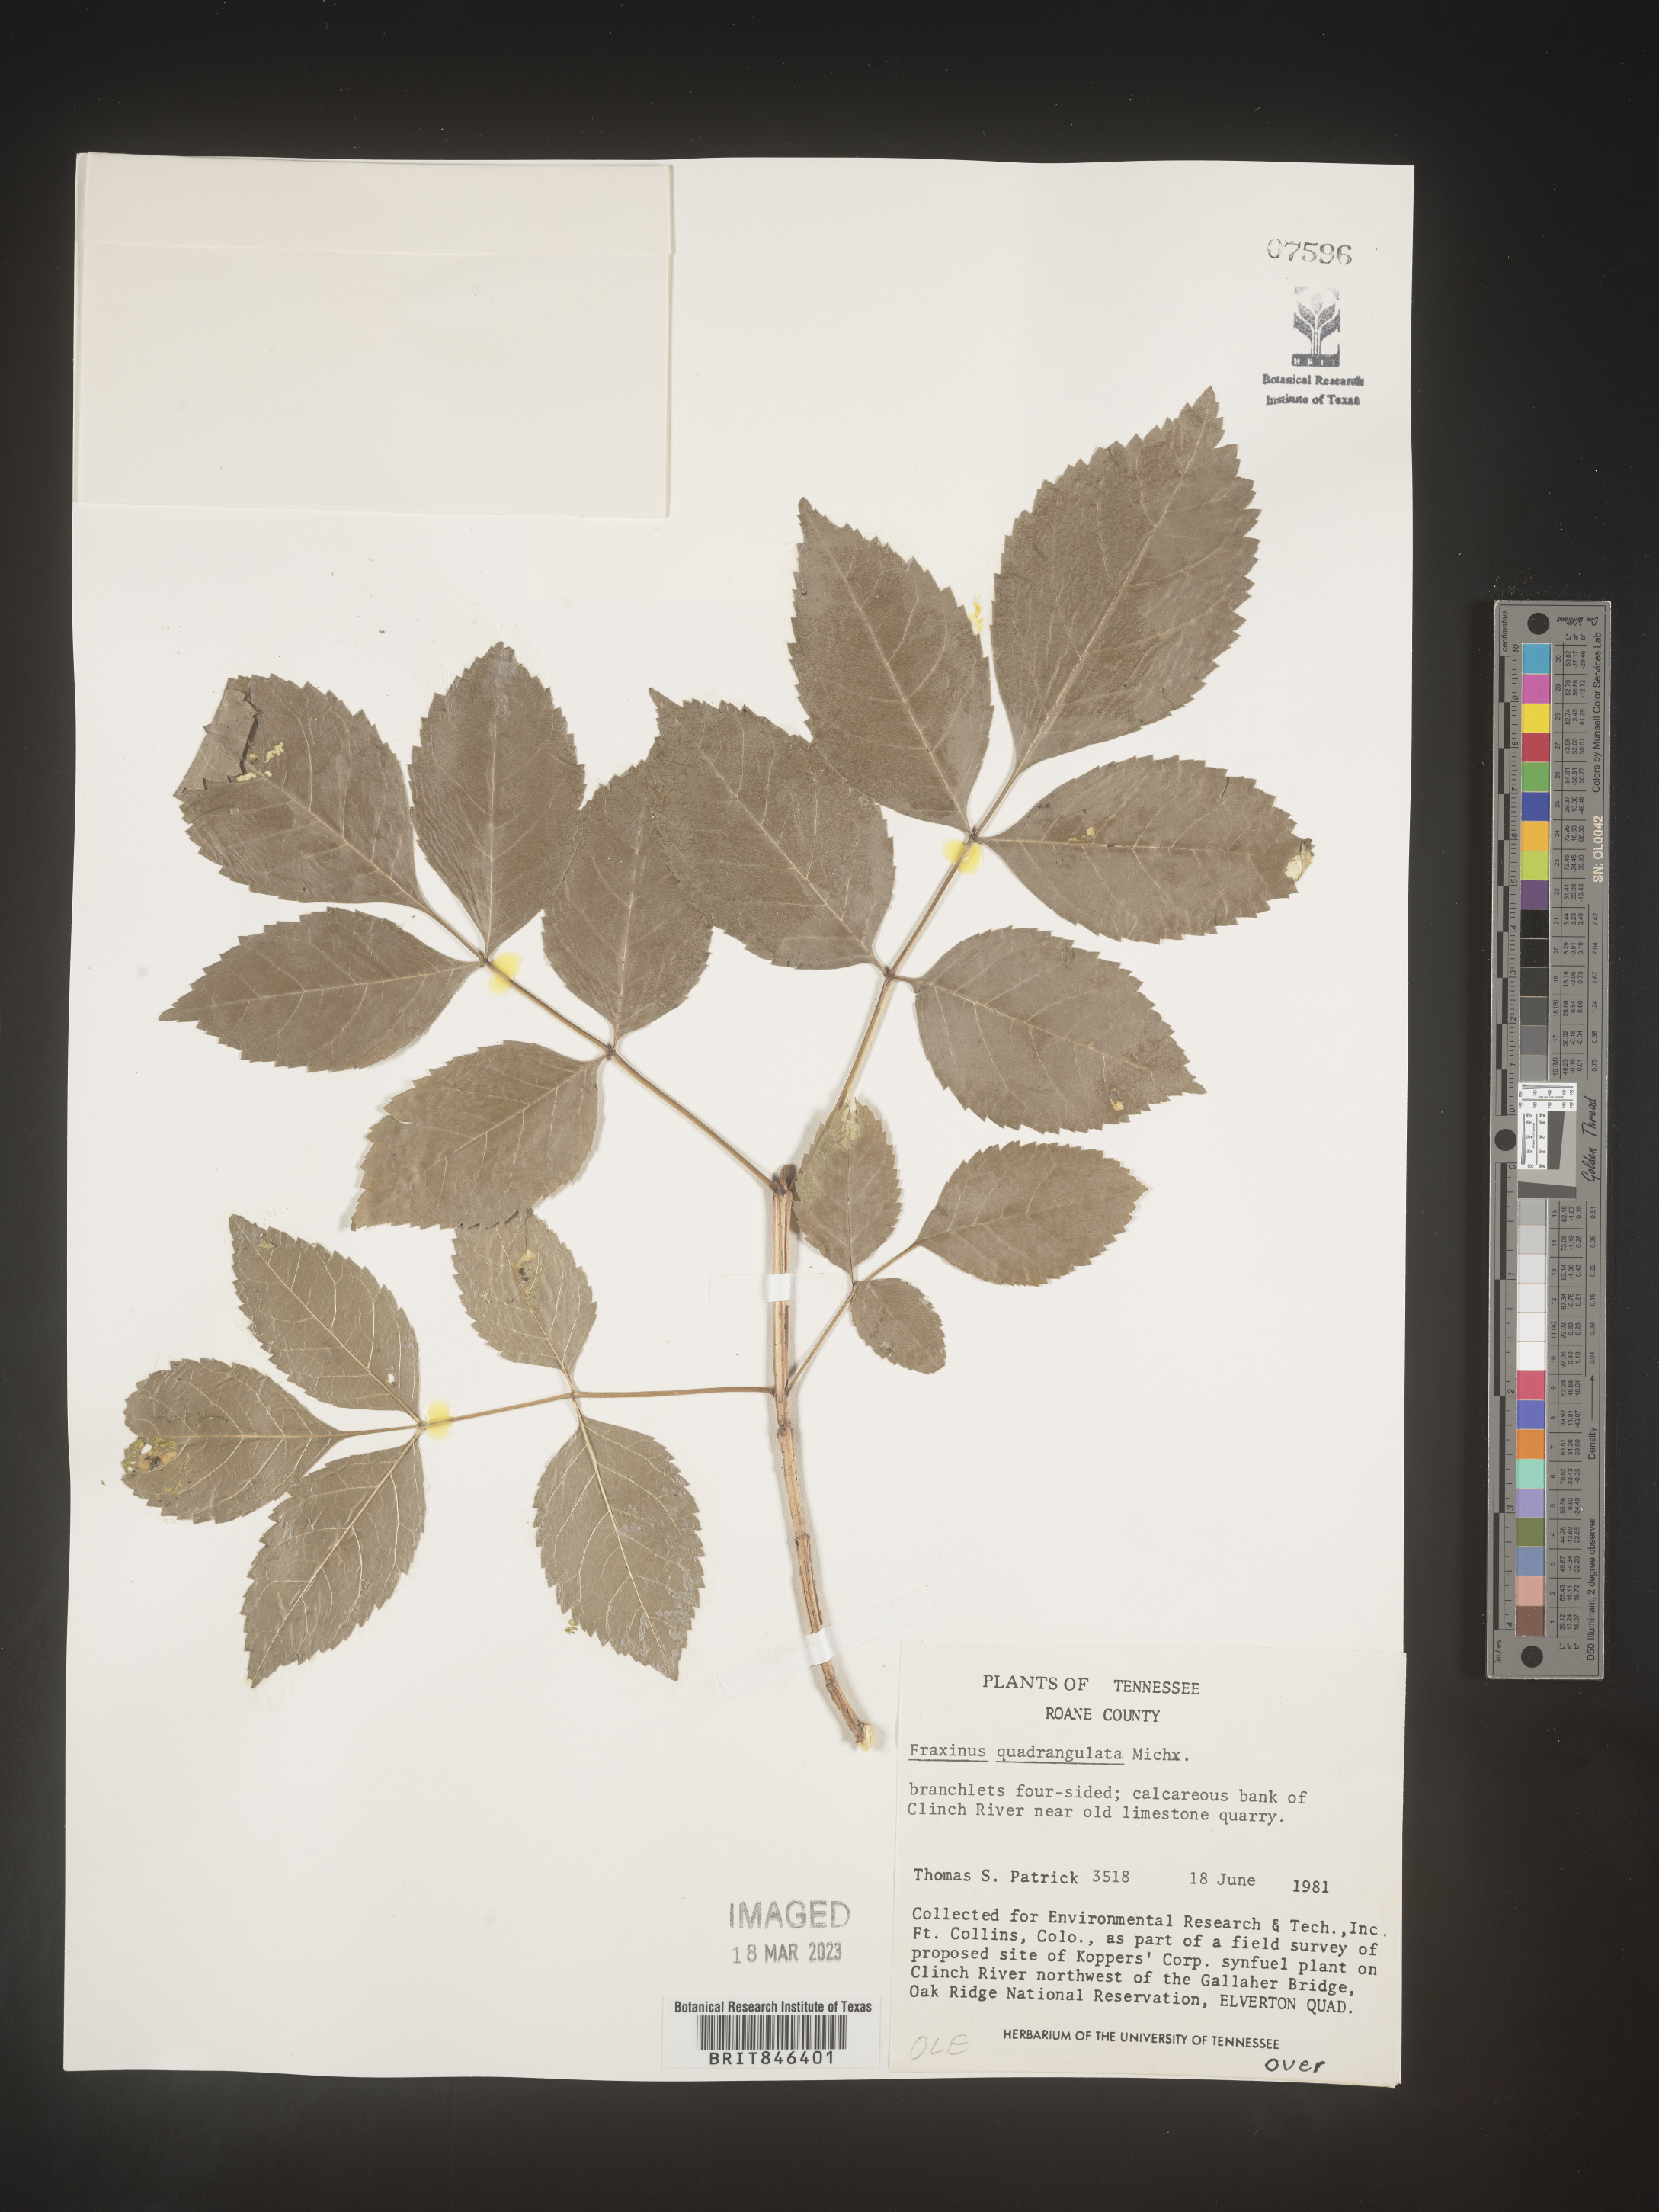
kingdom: Plantae
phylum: Tracheophyta
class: Magnoliopsida
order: Lamiales
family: Oleaceae
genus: Fraxinus
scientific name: Fraxinus quadrangulata
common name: Blue ash
